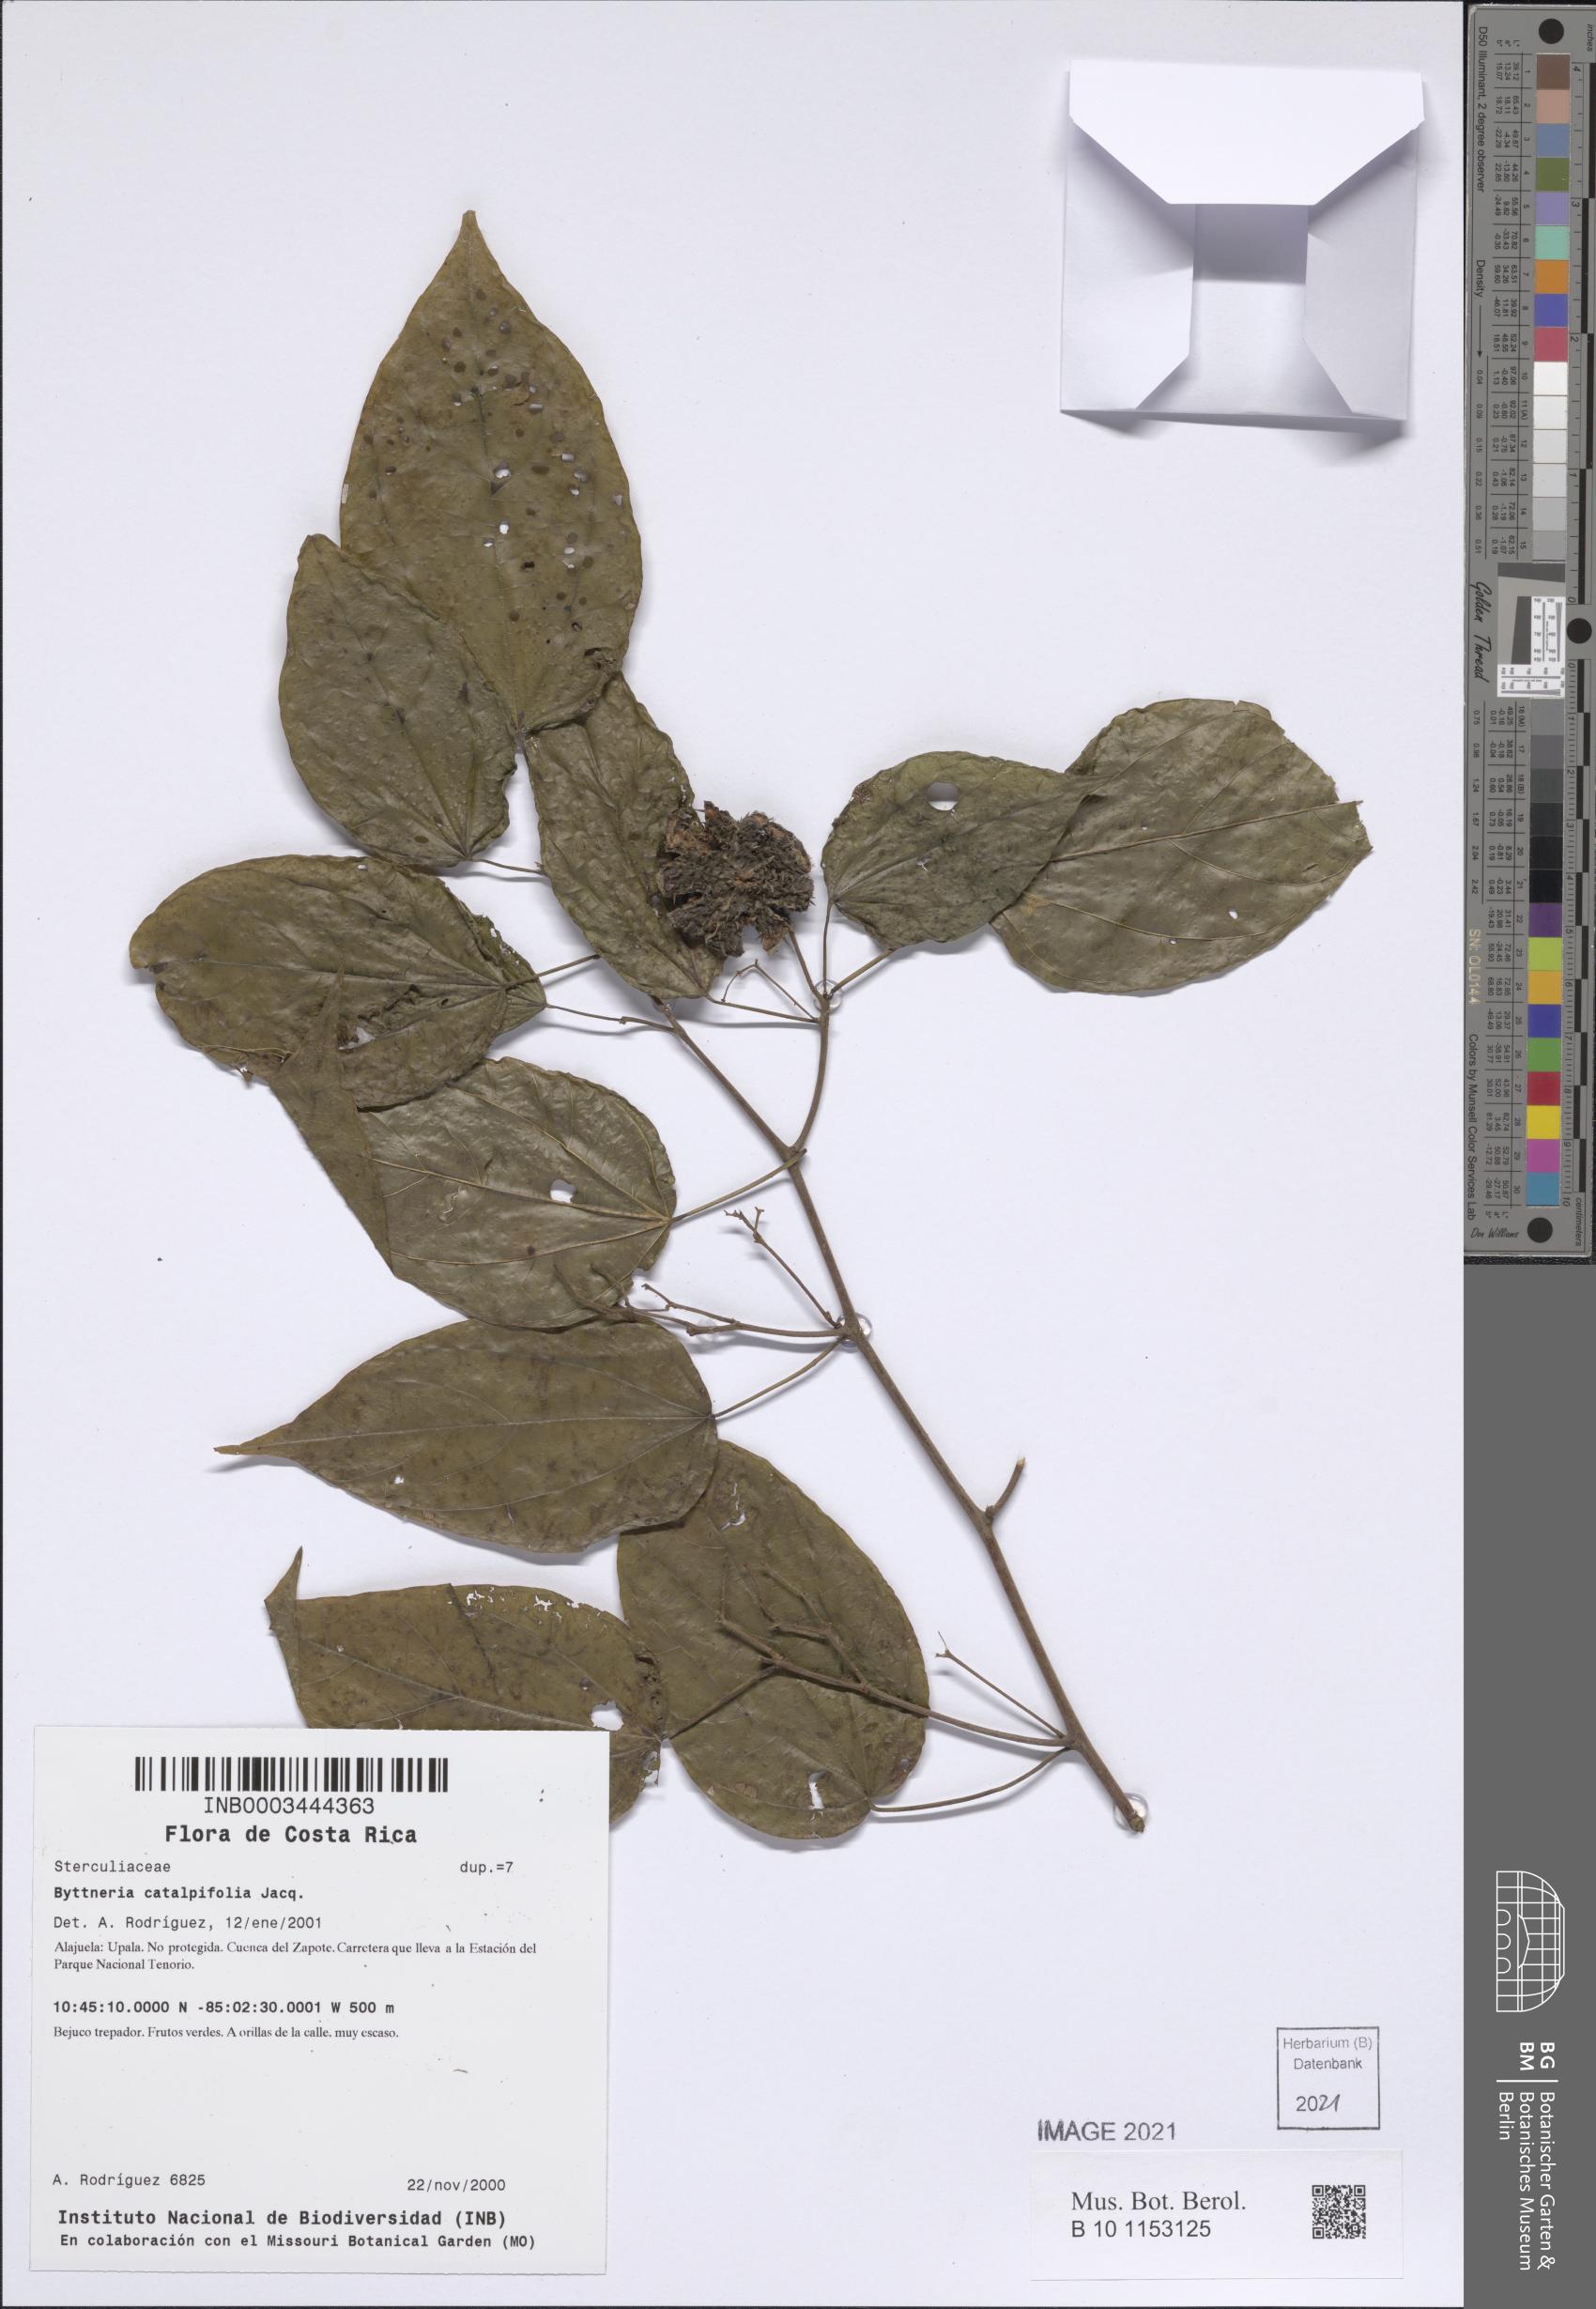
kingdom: Plantae
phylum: Tracheophyta
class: Magnoliopsida
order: Malvales
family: Malvaceae
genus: Byttneria
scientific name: Byttneria catalpifolia
